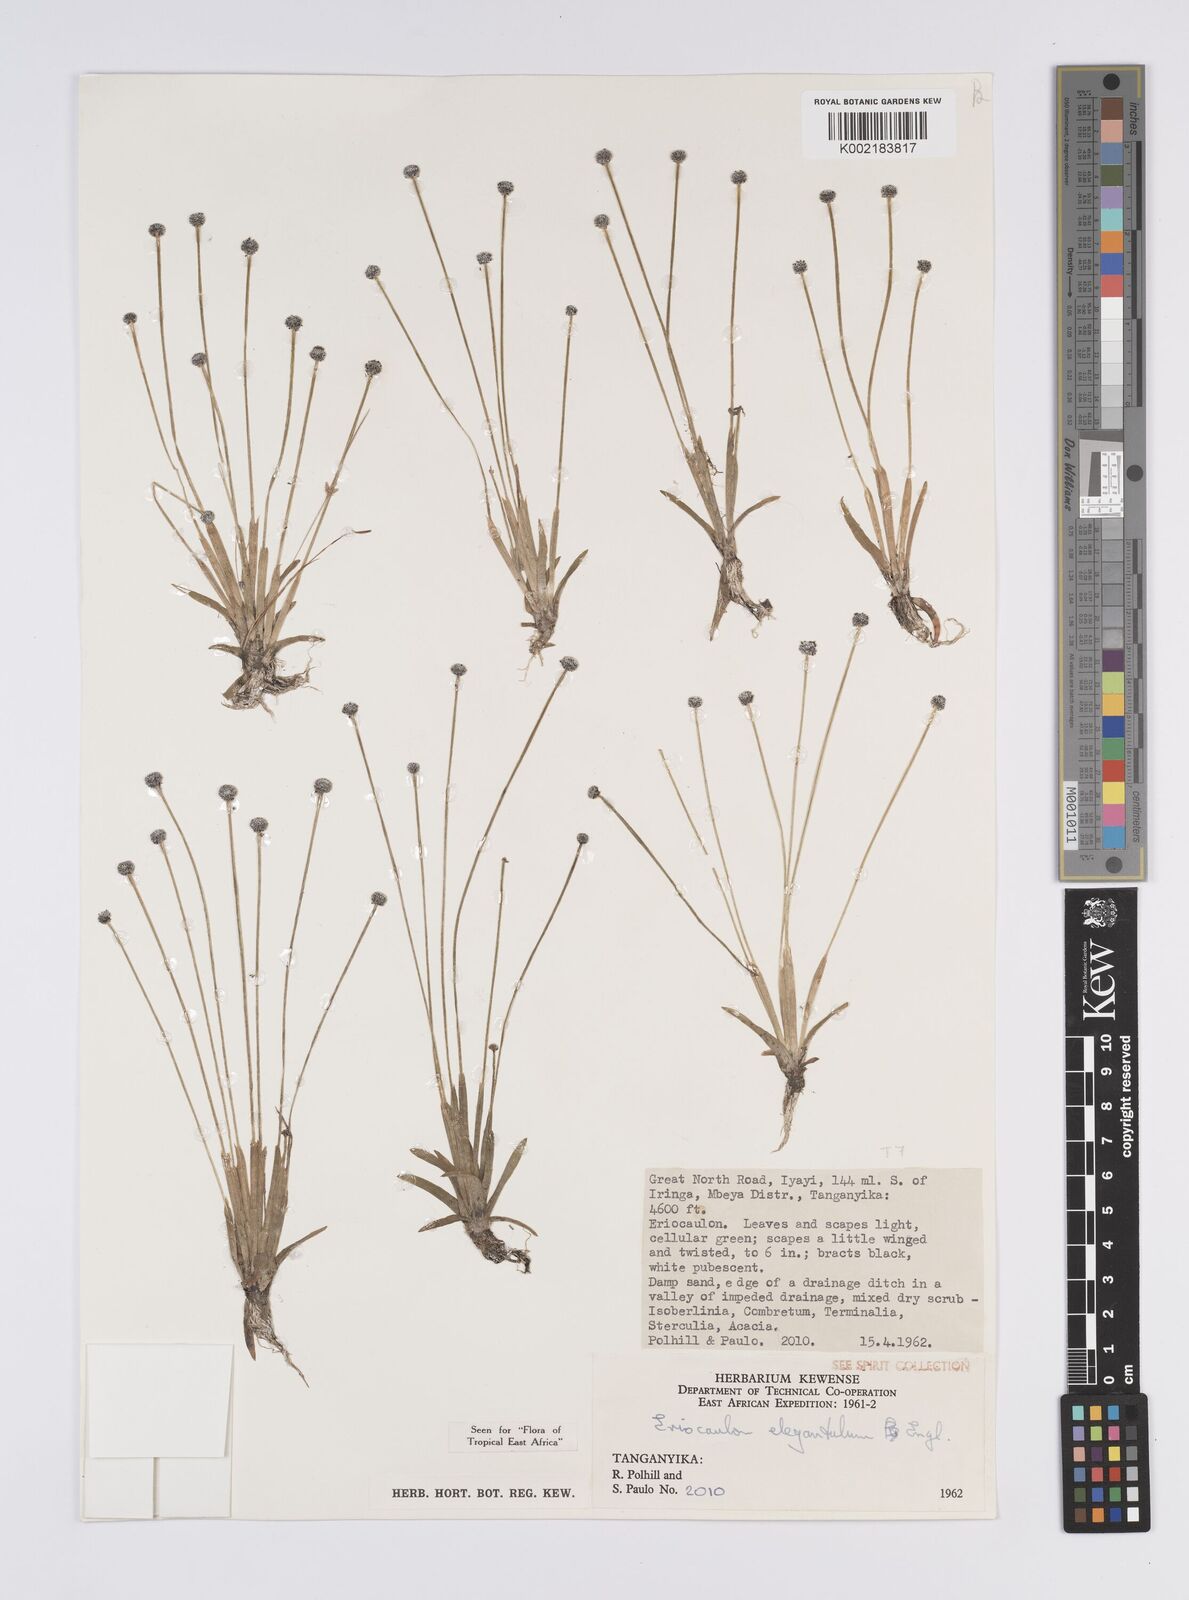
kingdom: Plantae
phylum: Tracheophyta
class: Liliopsida
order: Poales
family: Eriocaulaceae
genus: Eriocaulon
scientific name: Eriocaulon elegantulum
